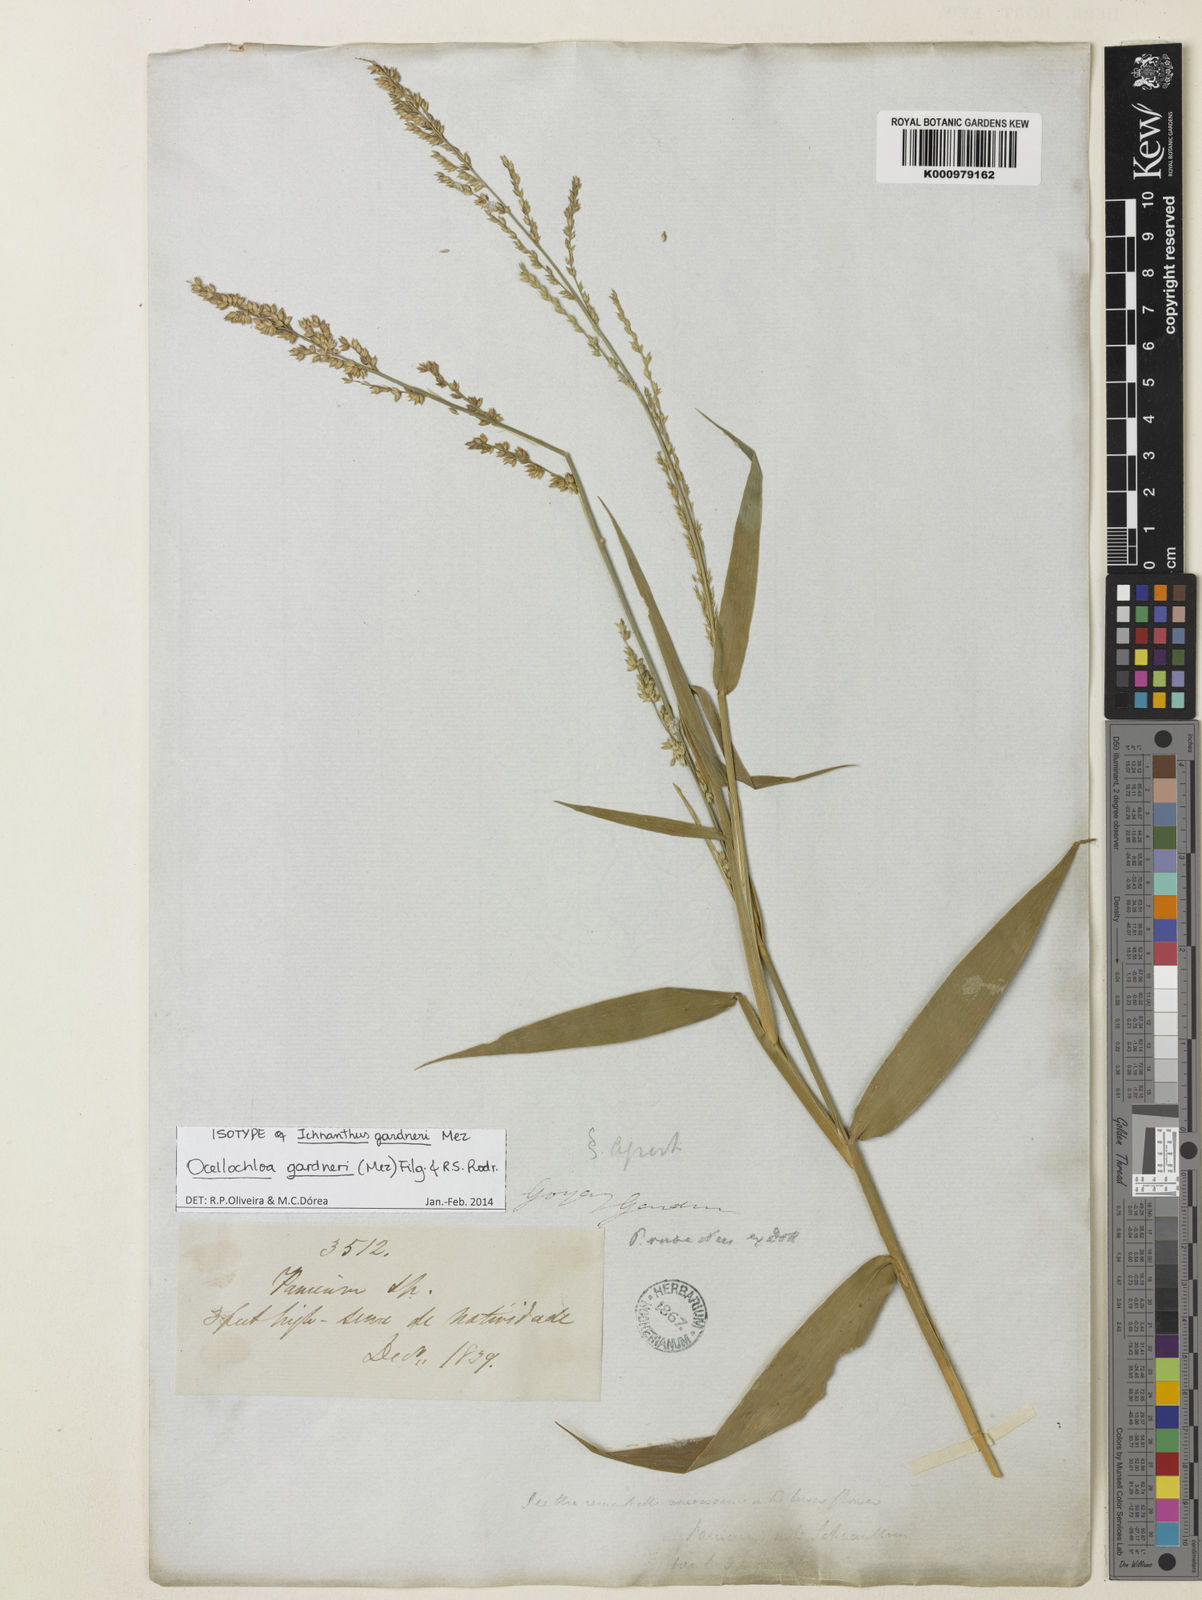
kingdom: Plantae
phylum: Tracheophyta
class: Liliopsida
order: Poales
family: Poaceae
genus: Ocellochloa
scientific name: Ocellochloa gardneri
